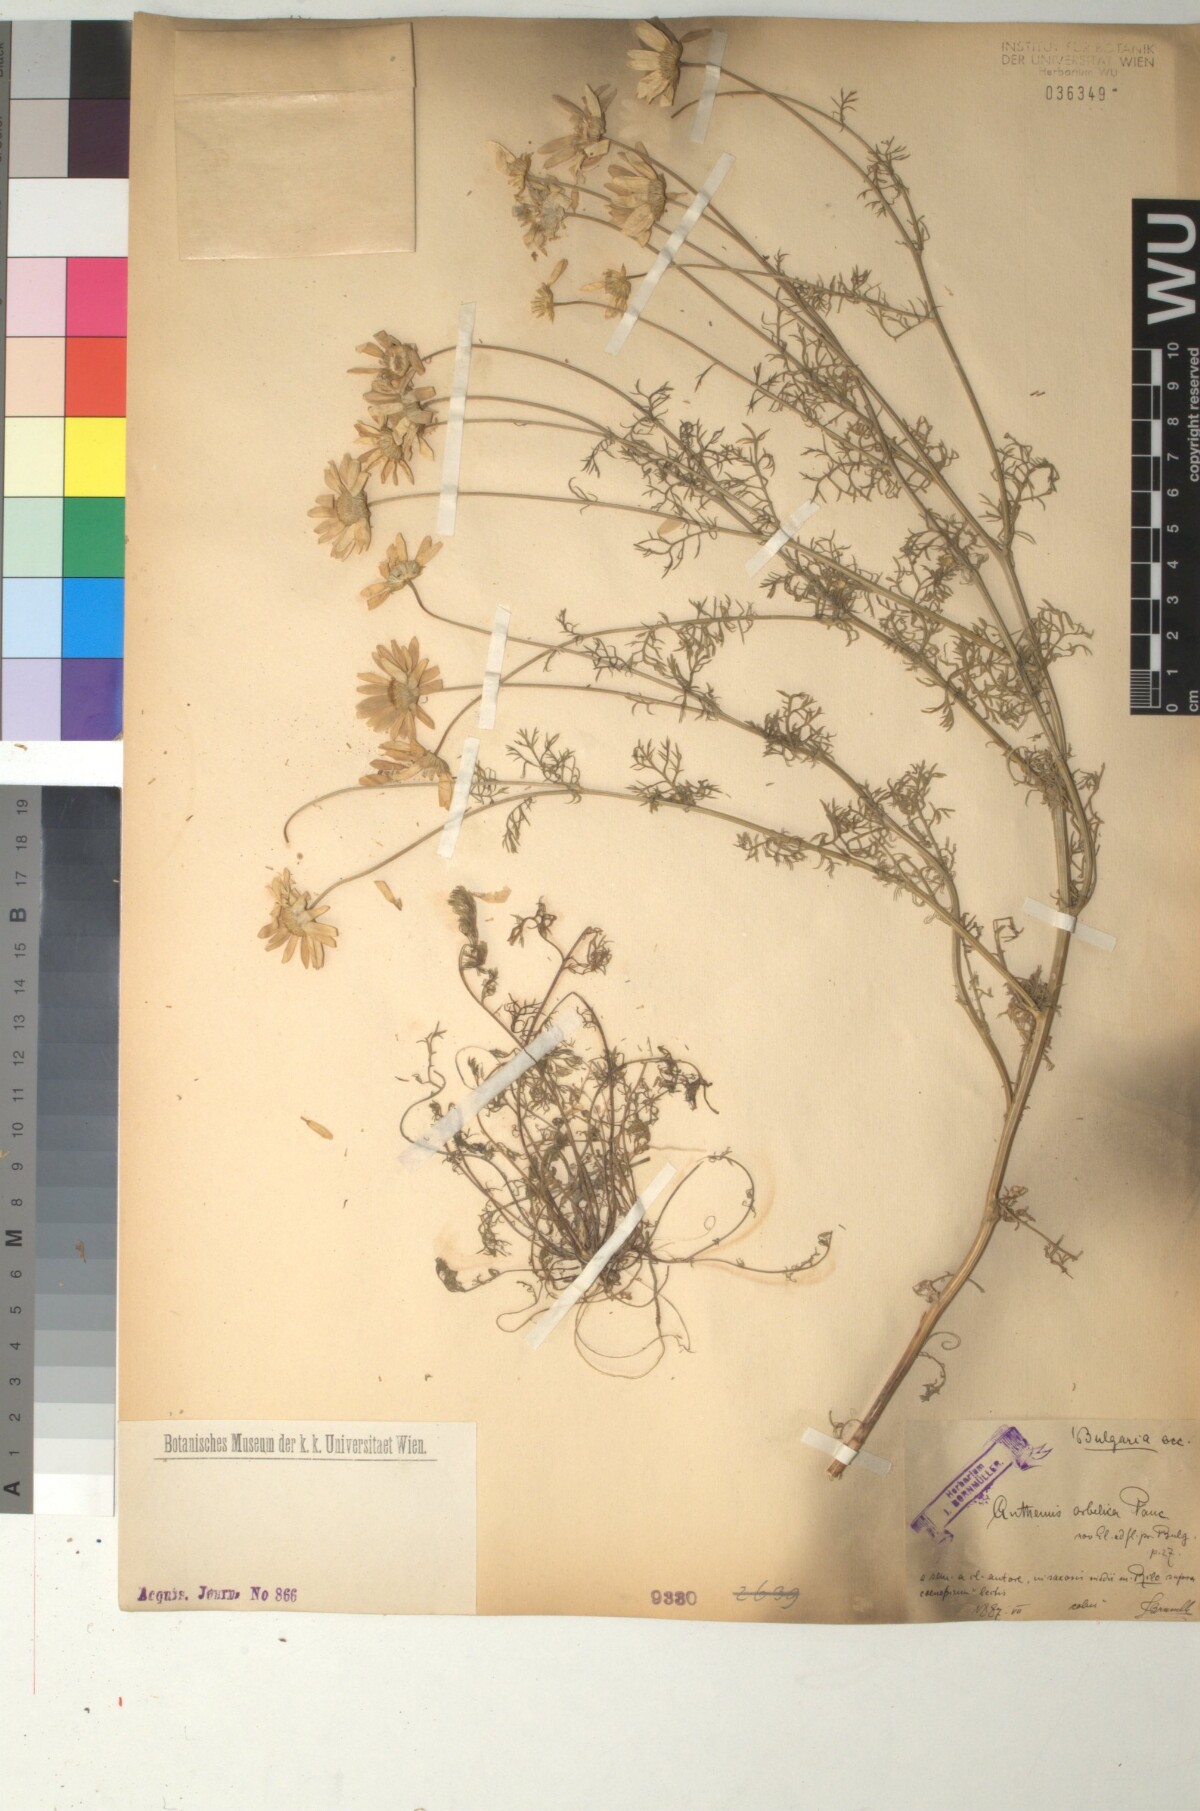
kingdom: Plantae
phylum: Tracheophyta
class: Magnoliopsida
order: Asterales
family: Asteraceae
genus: Anthemis
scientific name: Anthemis orbelica
